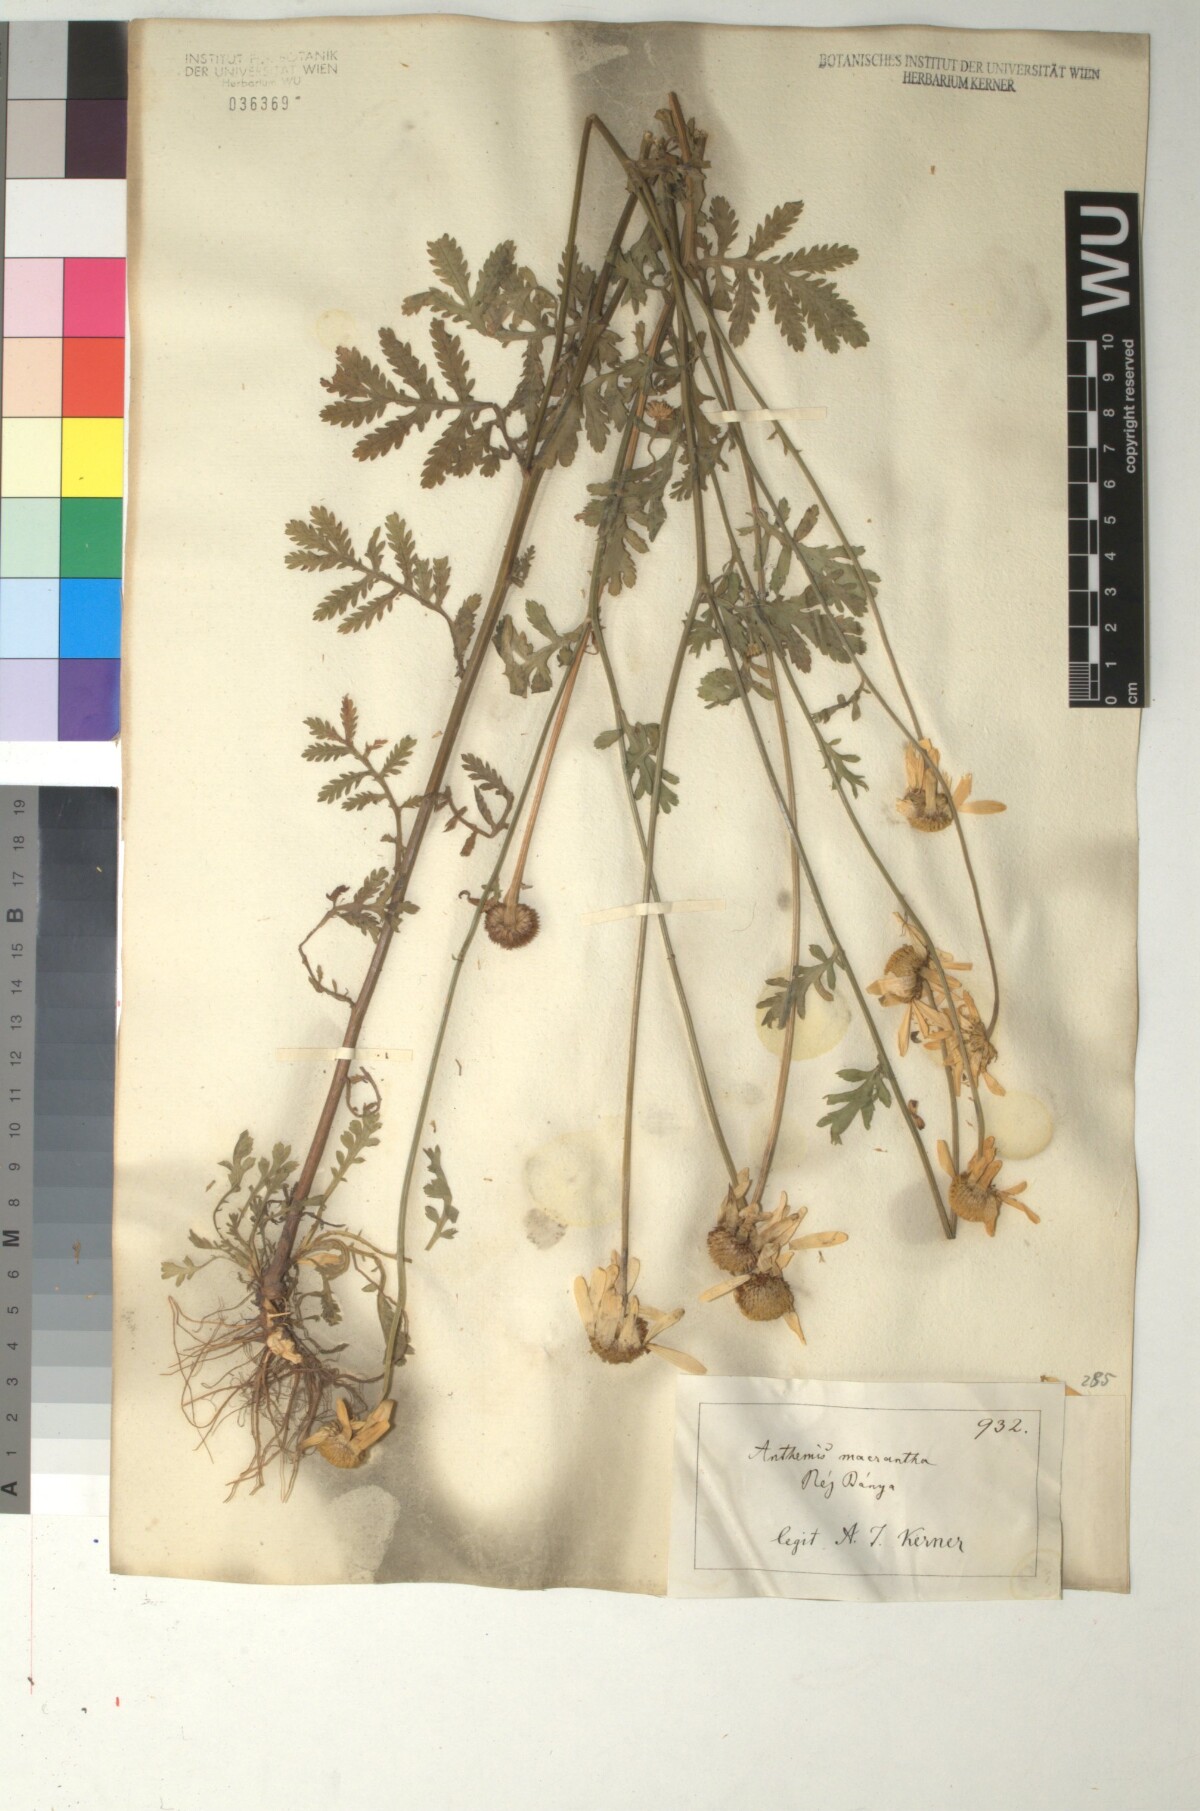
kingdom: Plantae
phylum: Tracheophyta
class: Magnoliopsida
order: Asterales
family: Asteraceae
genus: Cota
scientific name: Cota macrantha
